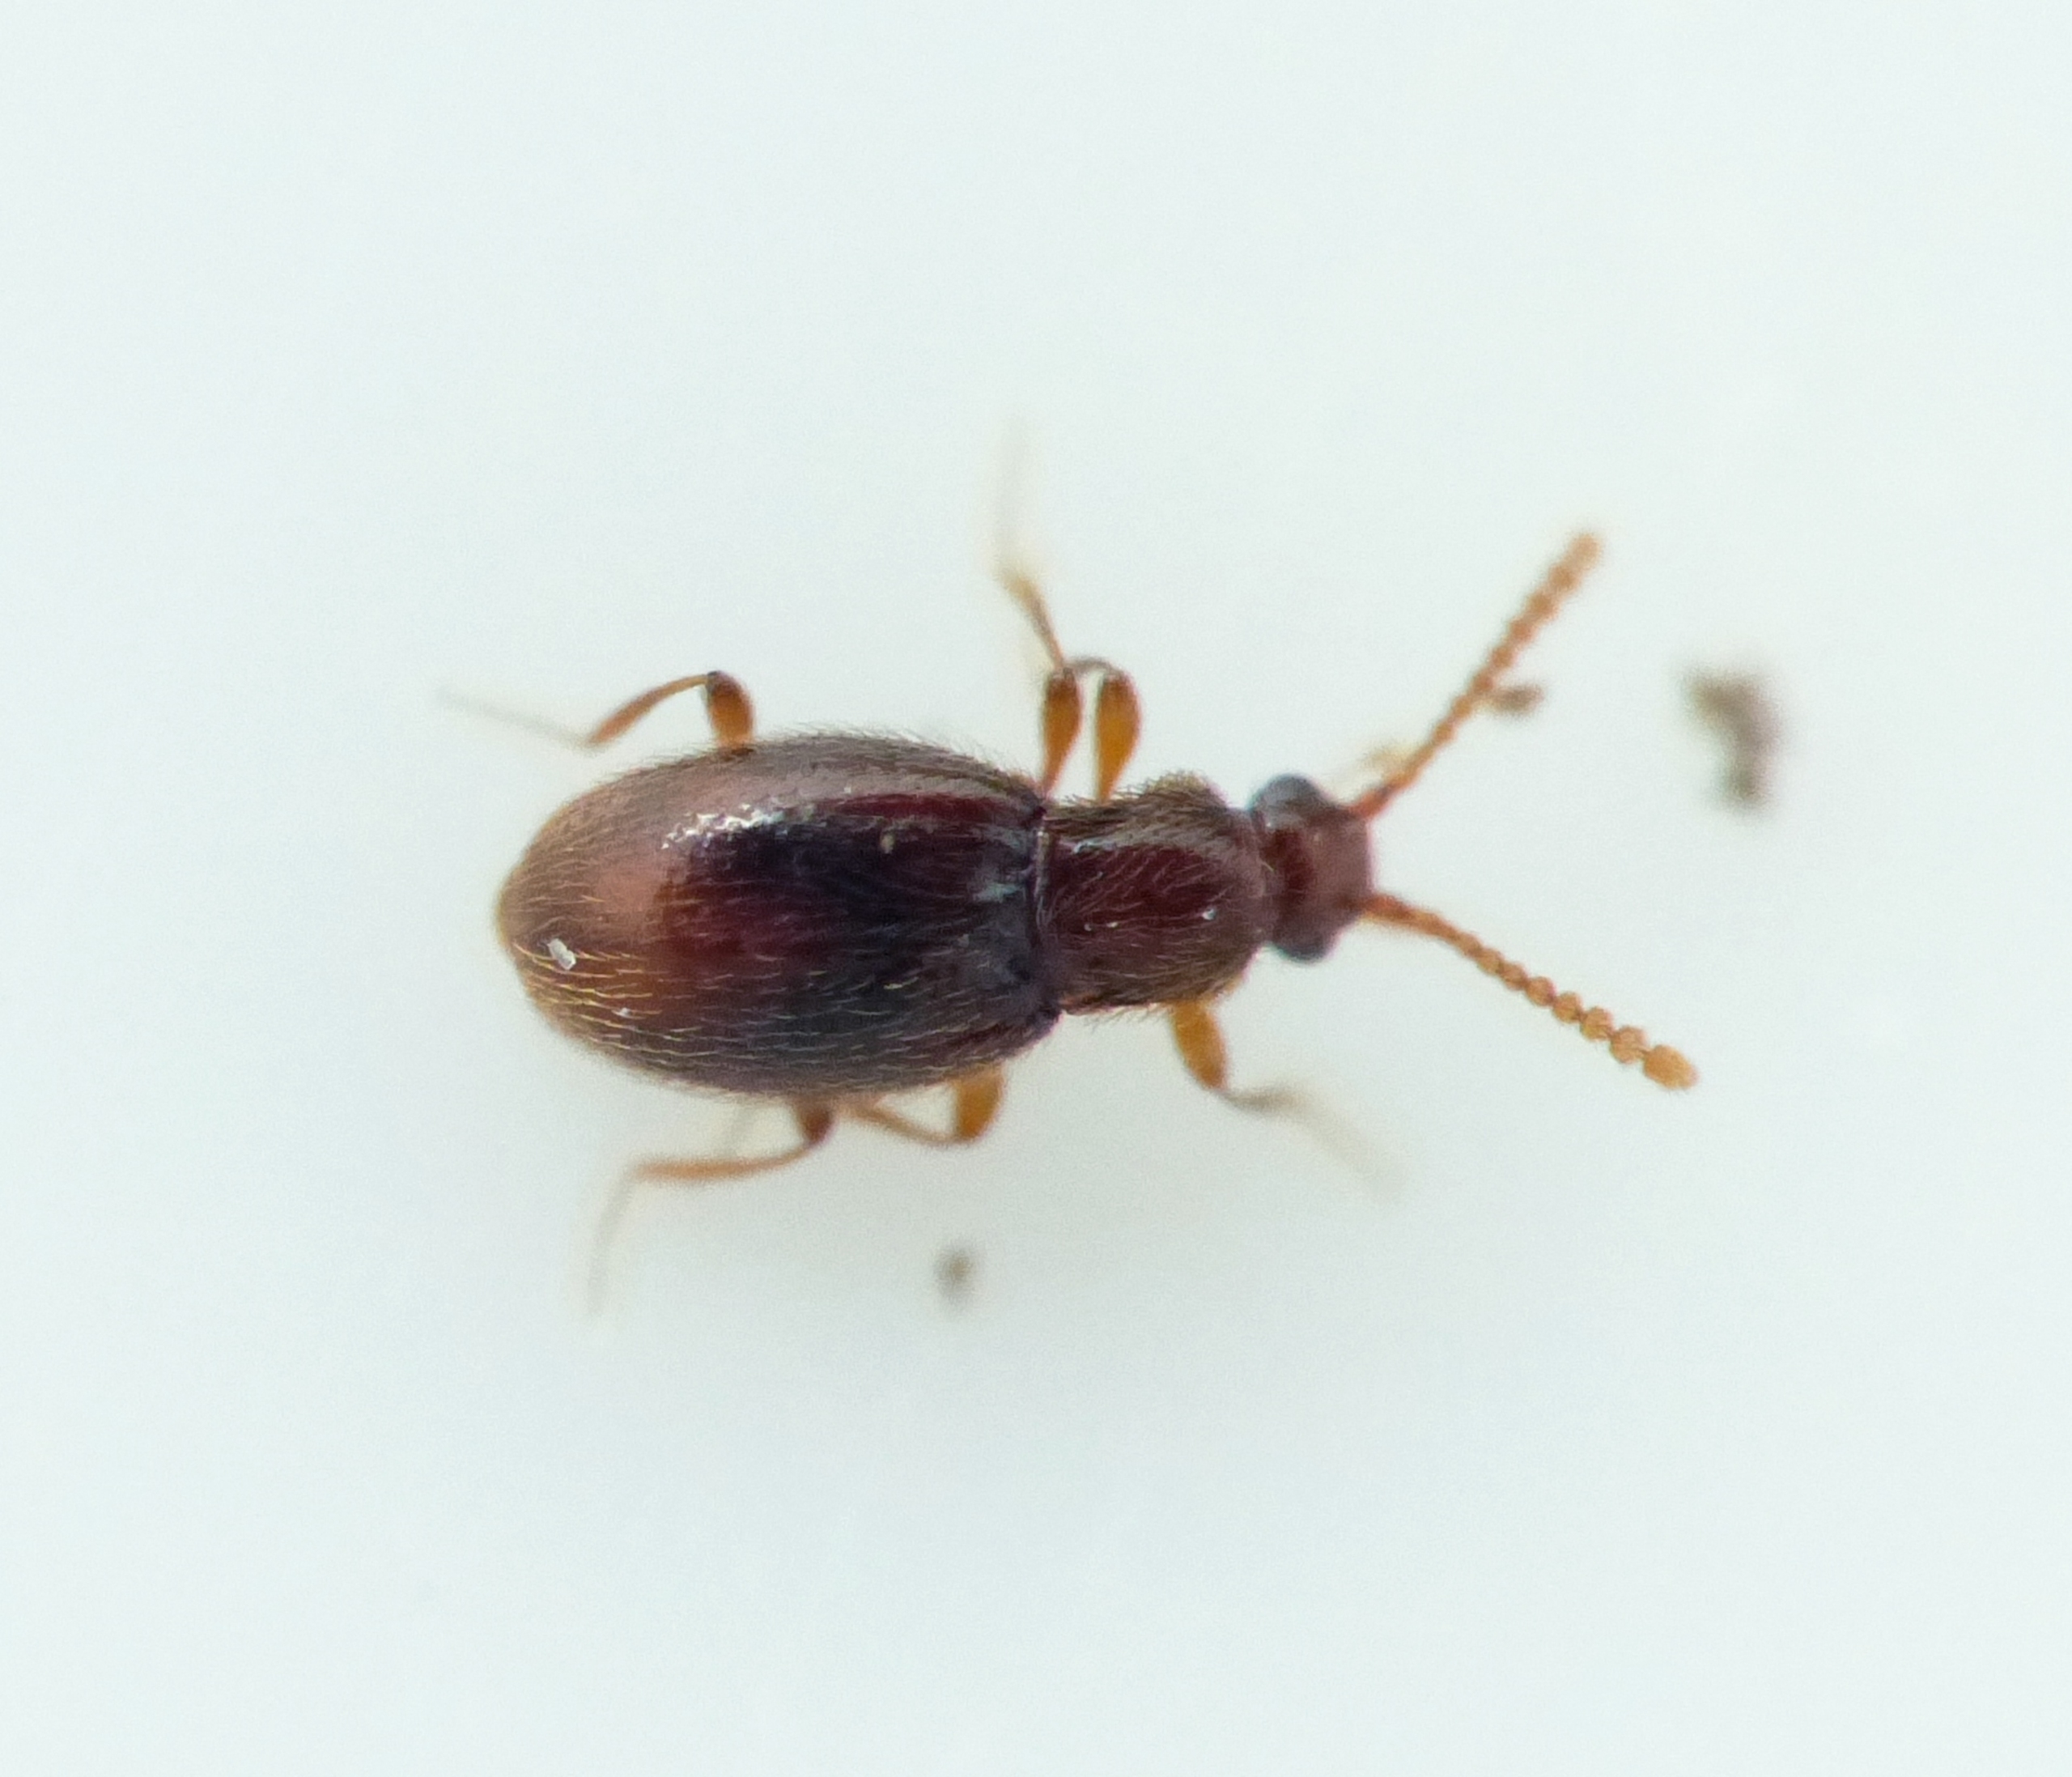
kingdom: Animalia
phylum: Arthropoda
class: Insecta
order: Coleoptera
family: Staphylinidae
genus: Scydmoraphes
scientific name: Scydmoraphes helvolus
